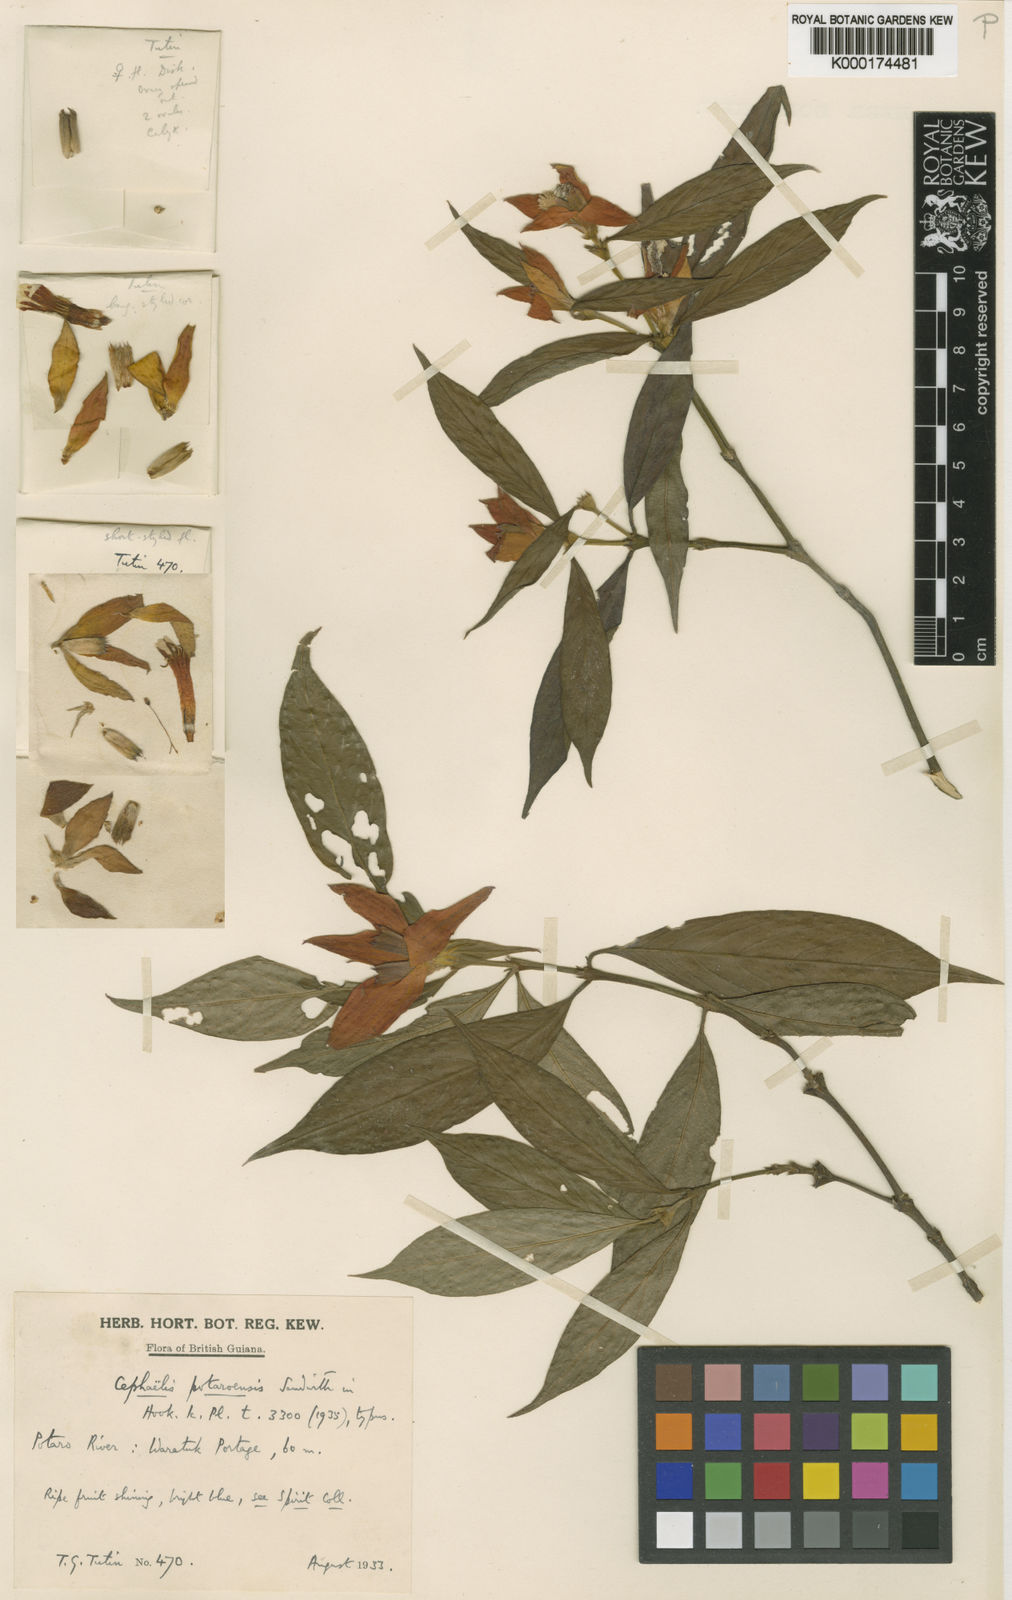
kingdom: Plantae
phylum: Tracheophyta
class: Magnoliopsida
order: Gentianales
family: Rubiaceae
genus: Palicourea
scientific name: Palicourea potaroensis
